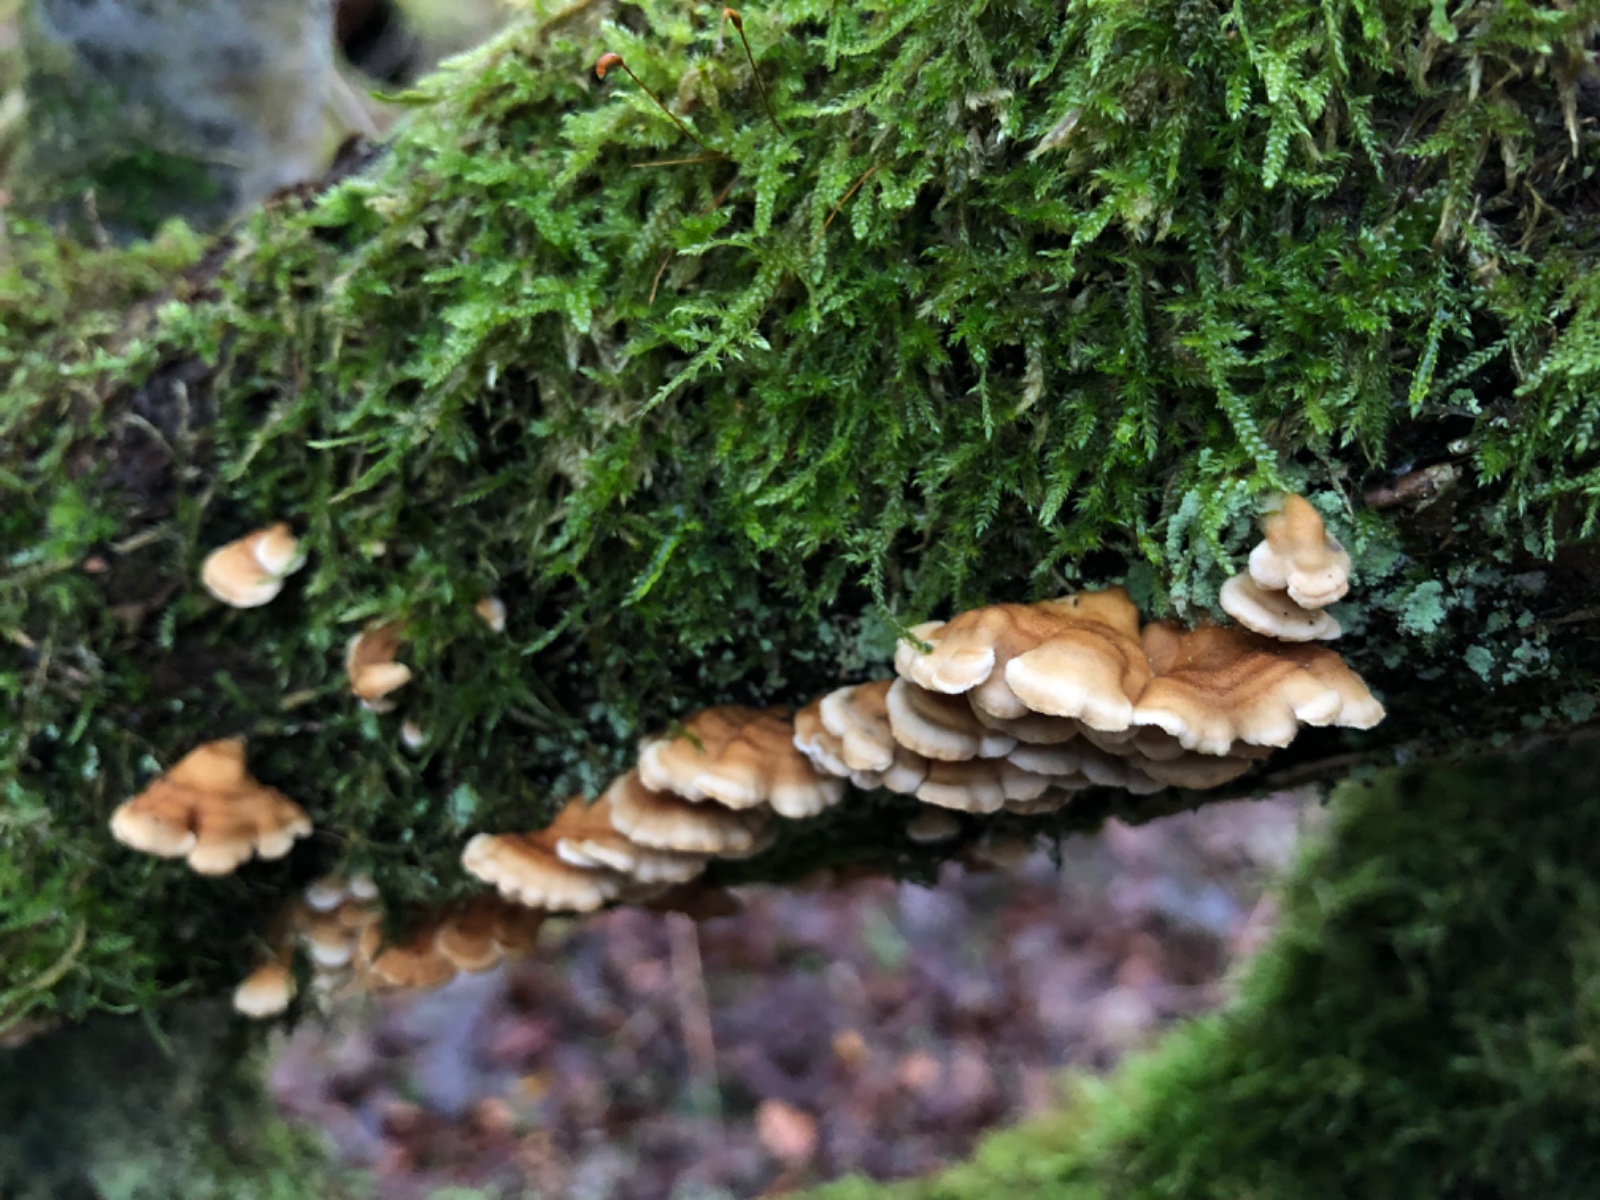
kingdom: Fungi
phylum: Basidiomycota
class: Agaricomycetes
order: Amylocorticiales
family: Amylocorticiaceae
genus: Plicaturopsis
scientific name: Plicaturopsis crispa
